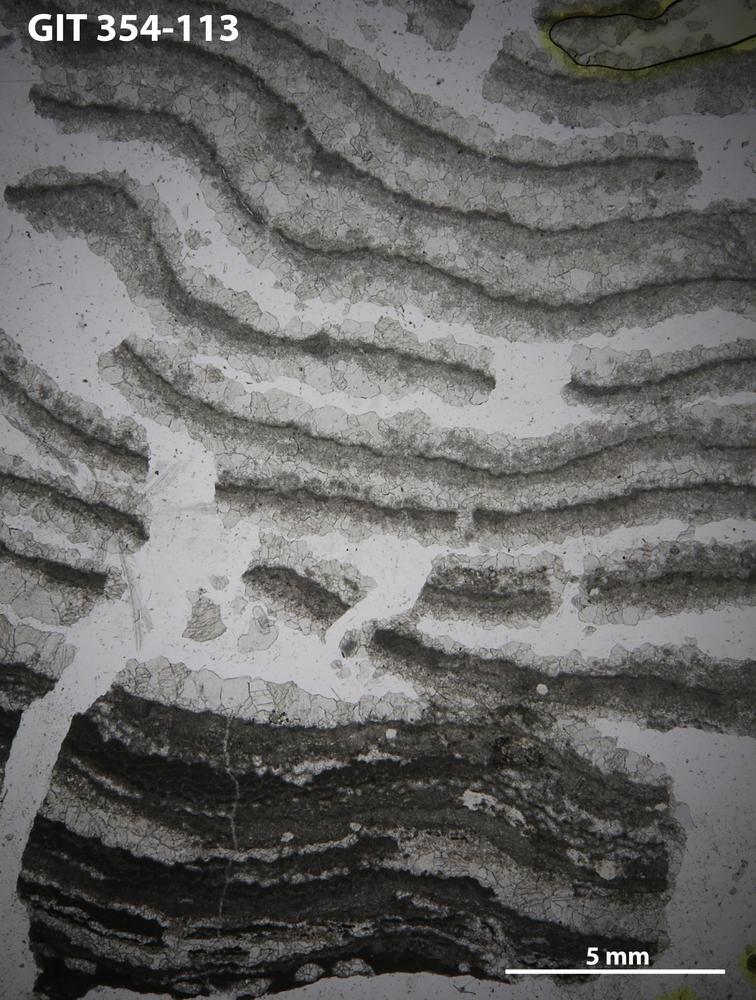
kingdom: Animalia
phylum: Porifera
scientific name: Porifera
